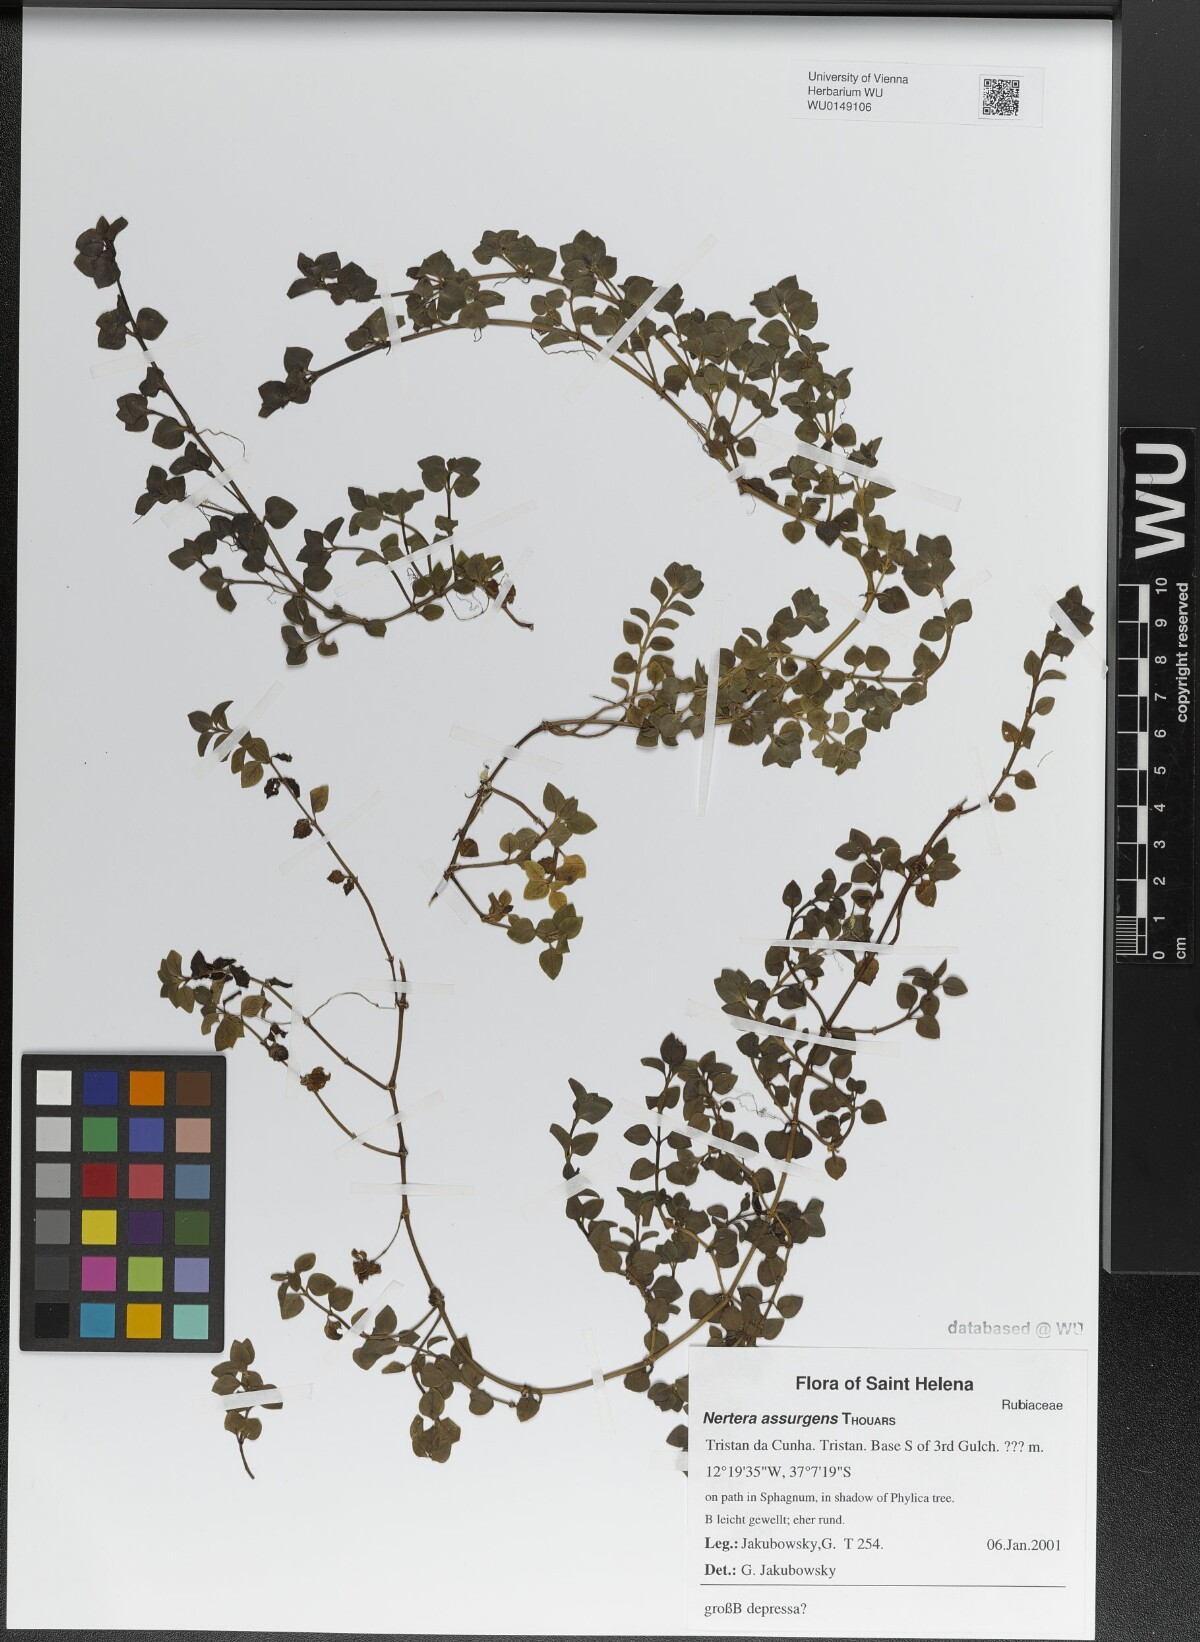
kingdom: Plantae
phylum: Tracheophyta
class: Magnoliopsida
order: Gentianales
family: Rubiaceae
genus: Nertera
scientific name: Nertera granadensis
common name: Beadplant
